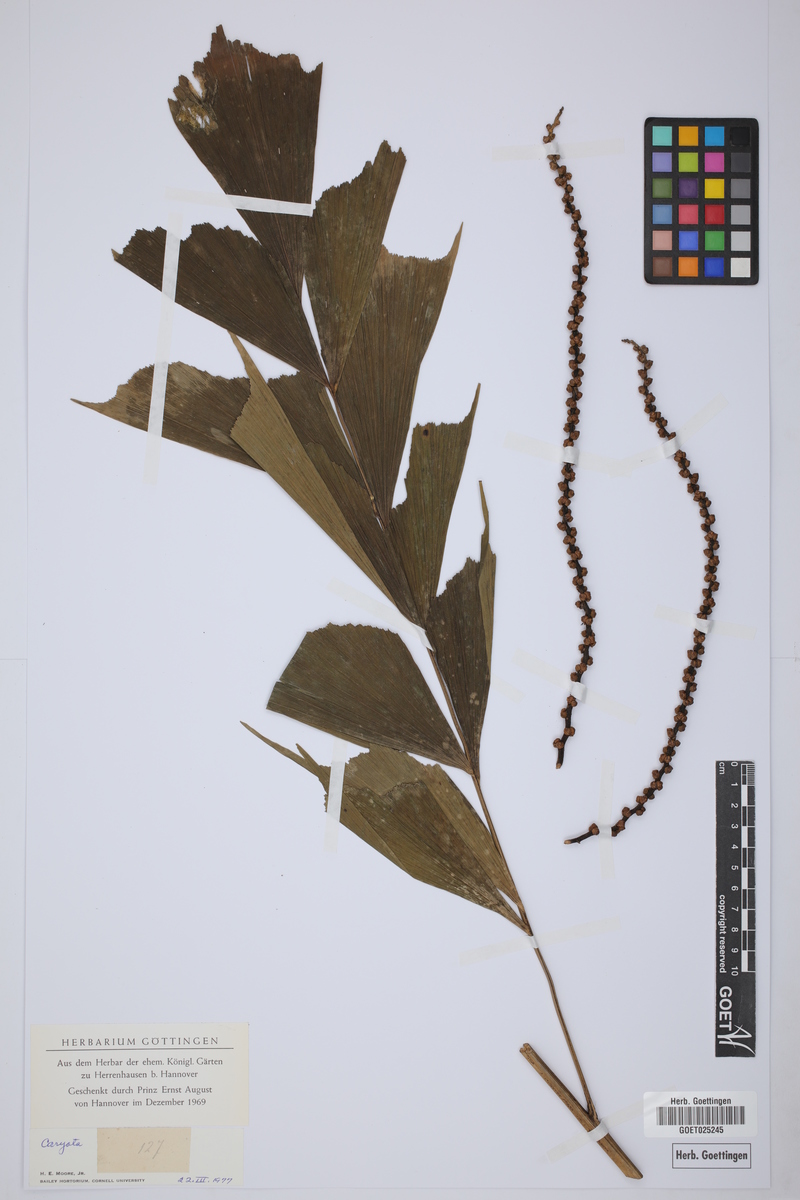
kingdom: Plantae
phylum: Tracheophyta
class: Liliopsida
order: Arecales
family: Arecaceae
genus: Caryota
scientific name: Caryota
